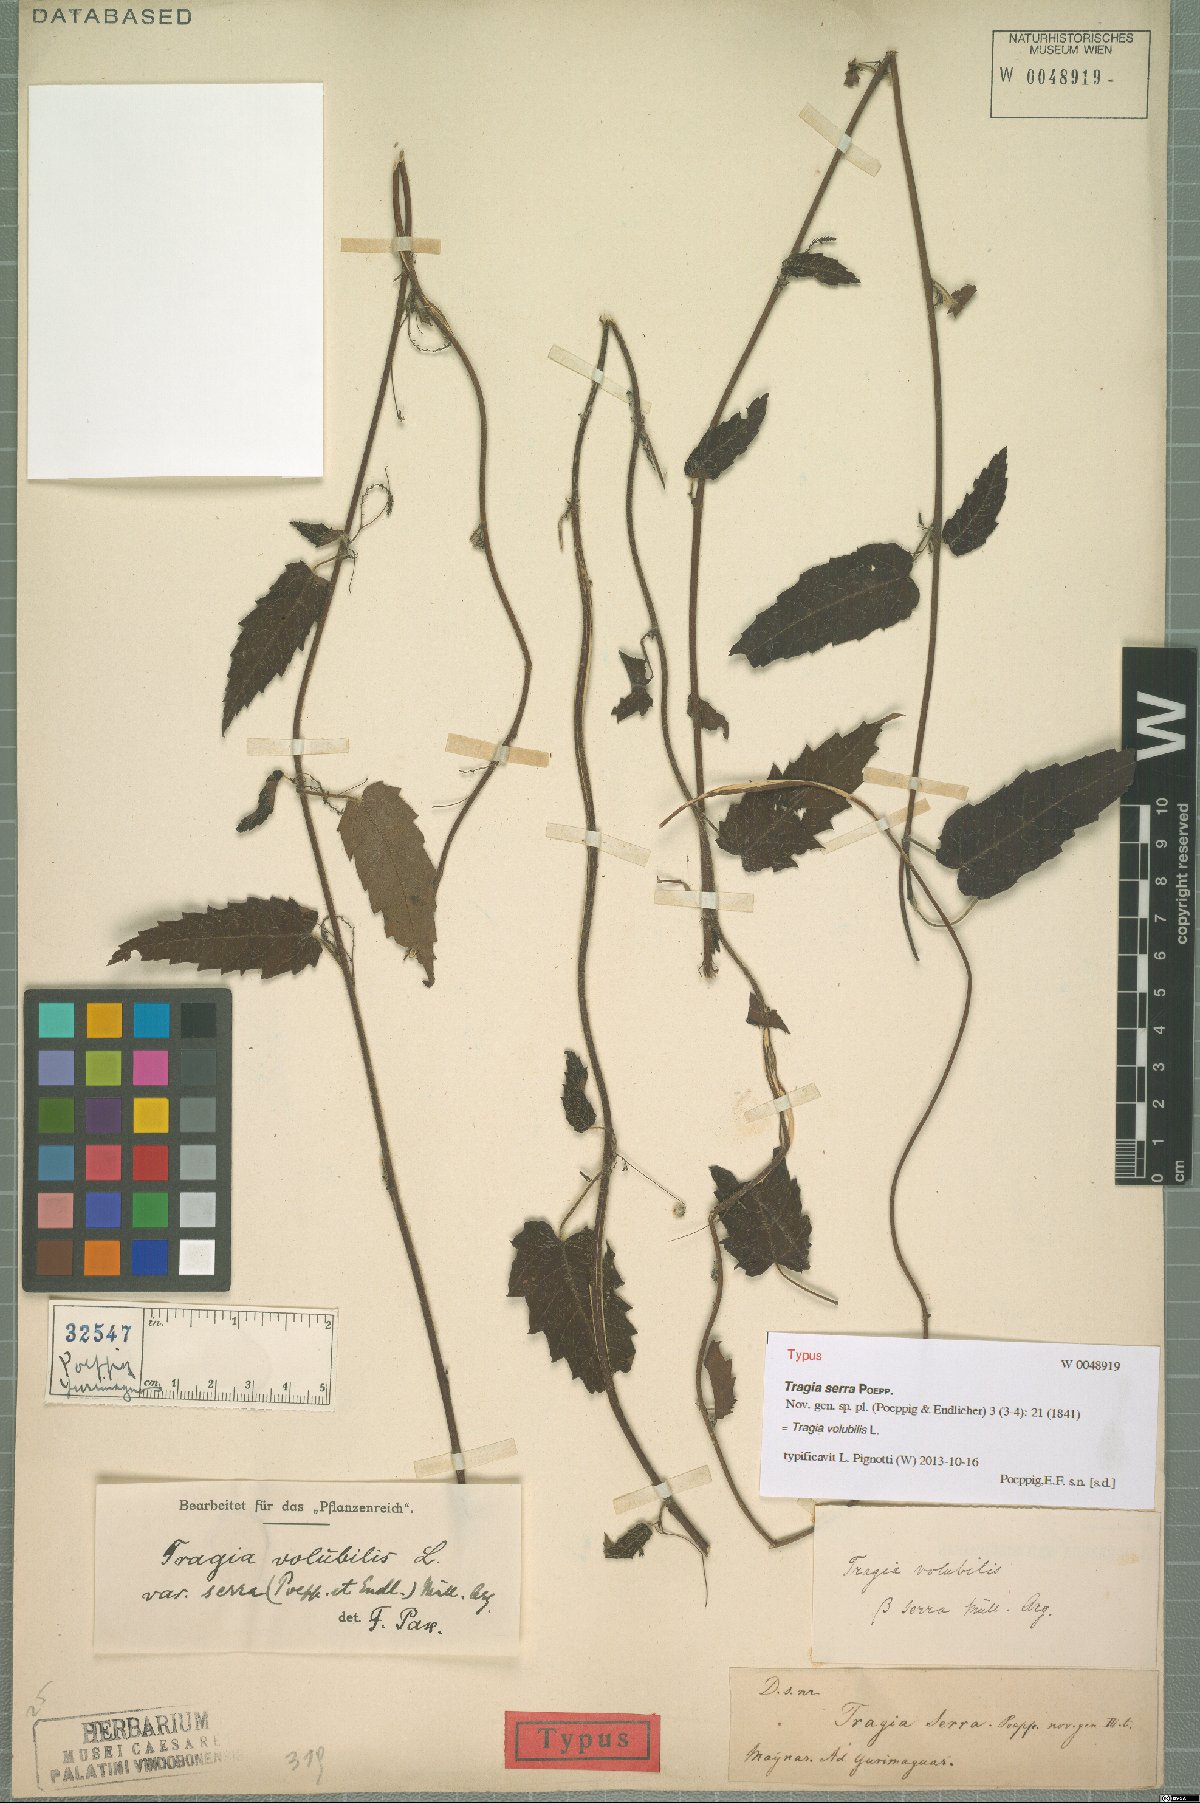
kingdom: Plantae
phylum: Tracheophyta
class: Magnoliopsida
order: Malpighiales
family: Euphorbiaceae
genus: Tragia
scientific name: Tragia volubilis
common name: Twining cow-itch
